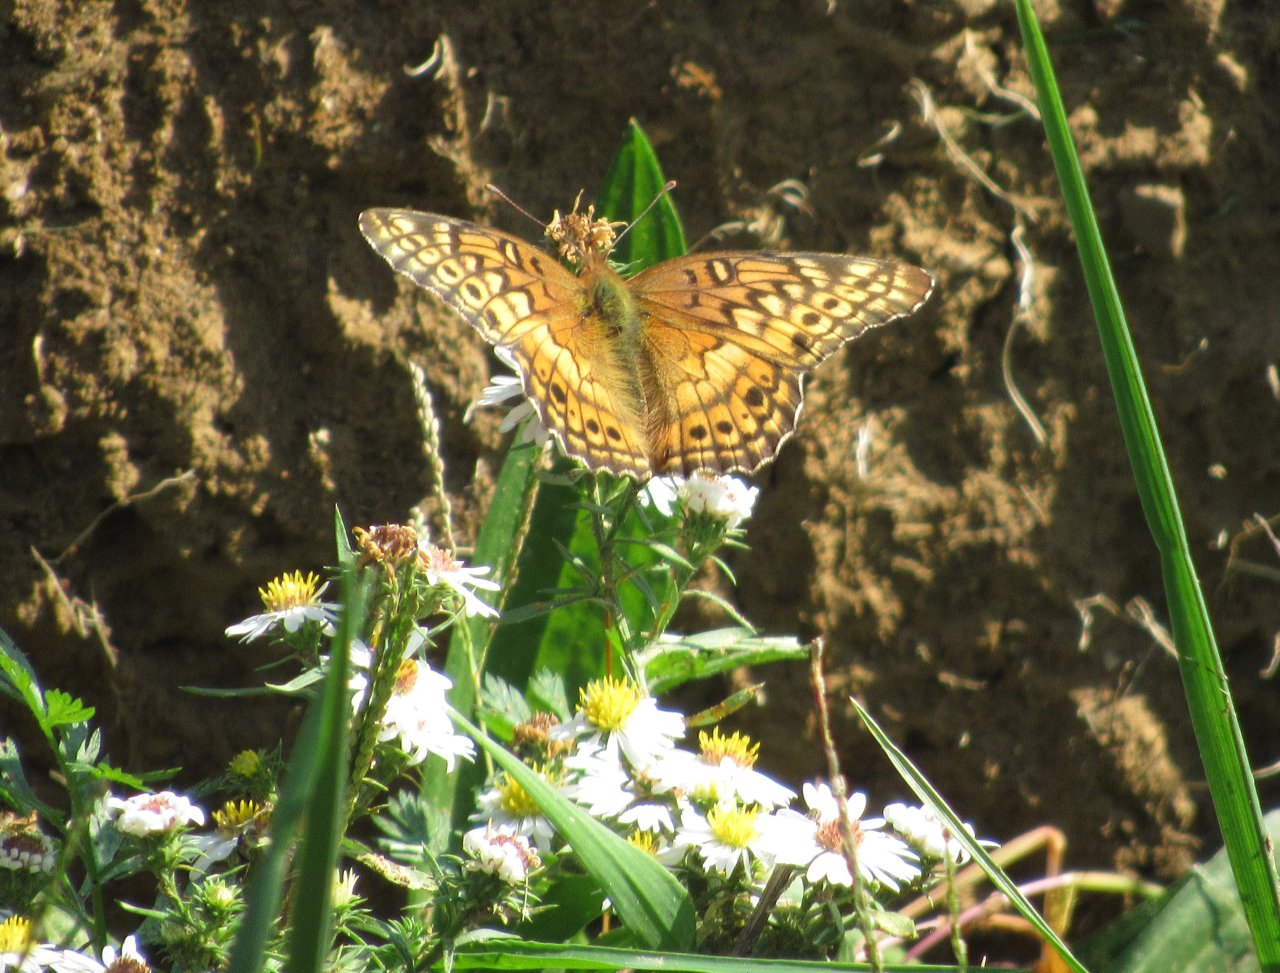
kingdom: Animalia
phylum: Arthropoda
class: Insecta
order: Lepidoptera
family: Nymphalidae
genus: Euptoieta
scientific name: Euptoieta claudia
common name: Variegated Fritillary
